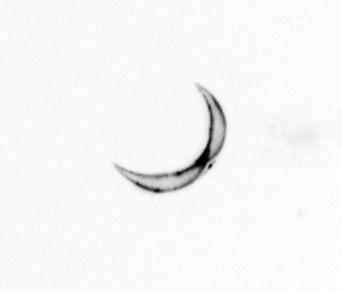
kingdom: Chromista
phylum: Ochrophyta
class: Bacillariophyceae
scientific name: Bacillariophyceae
